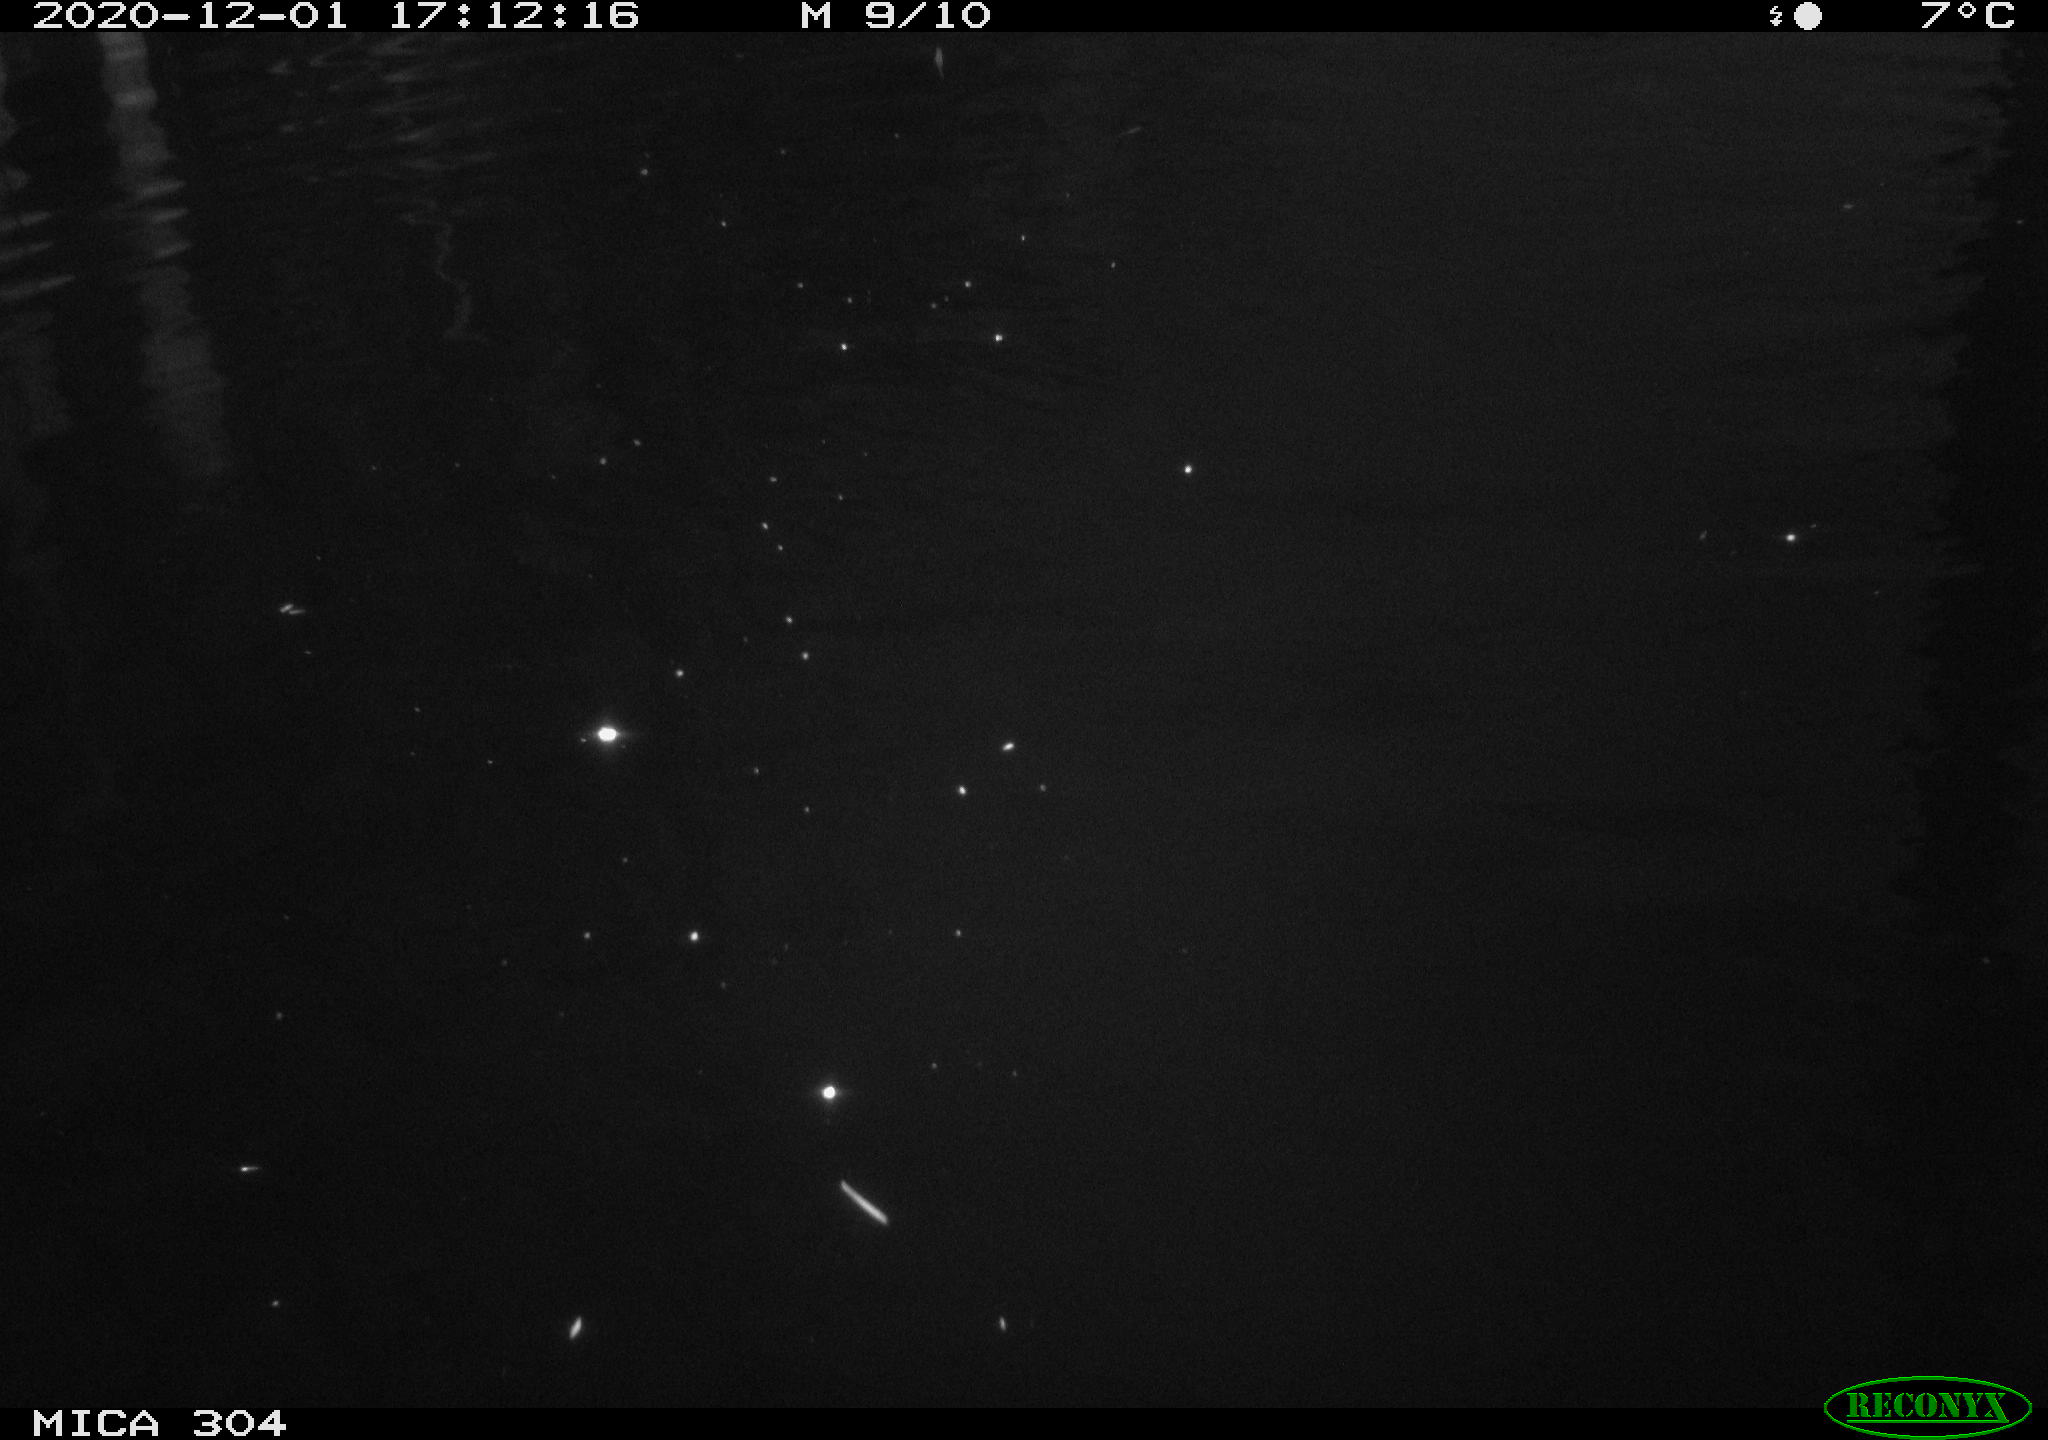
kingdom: Animalia
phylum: Chordata
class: Aves
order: Anseriformes
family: Anatidae
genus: Anas
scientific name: Anas platyrhynchos
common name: Mallard
